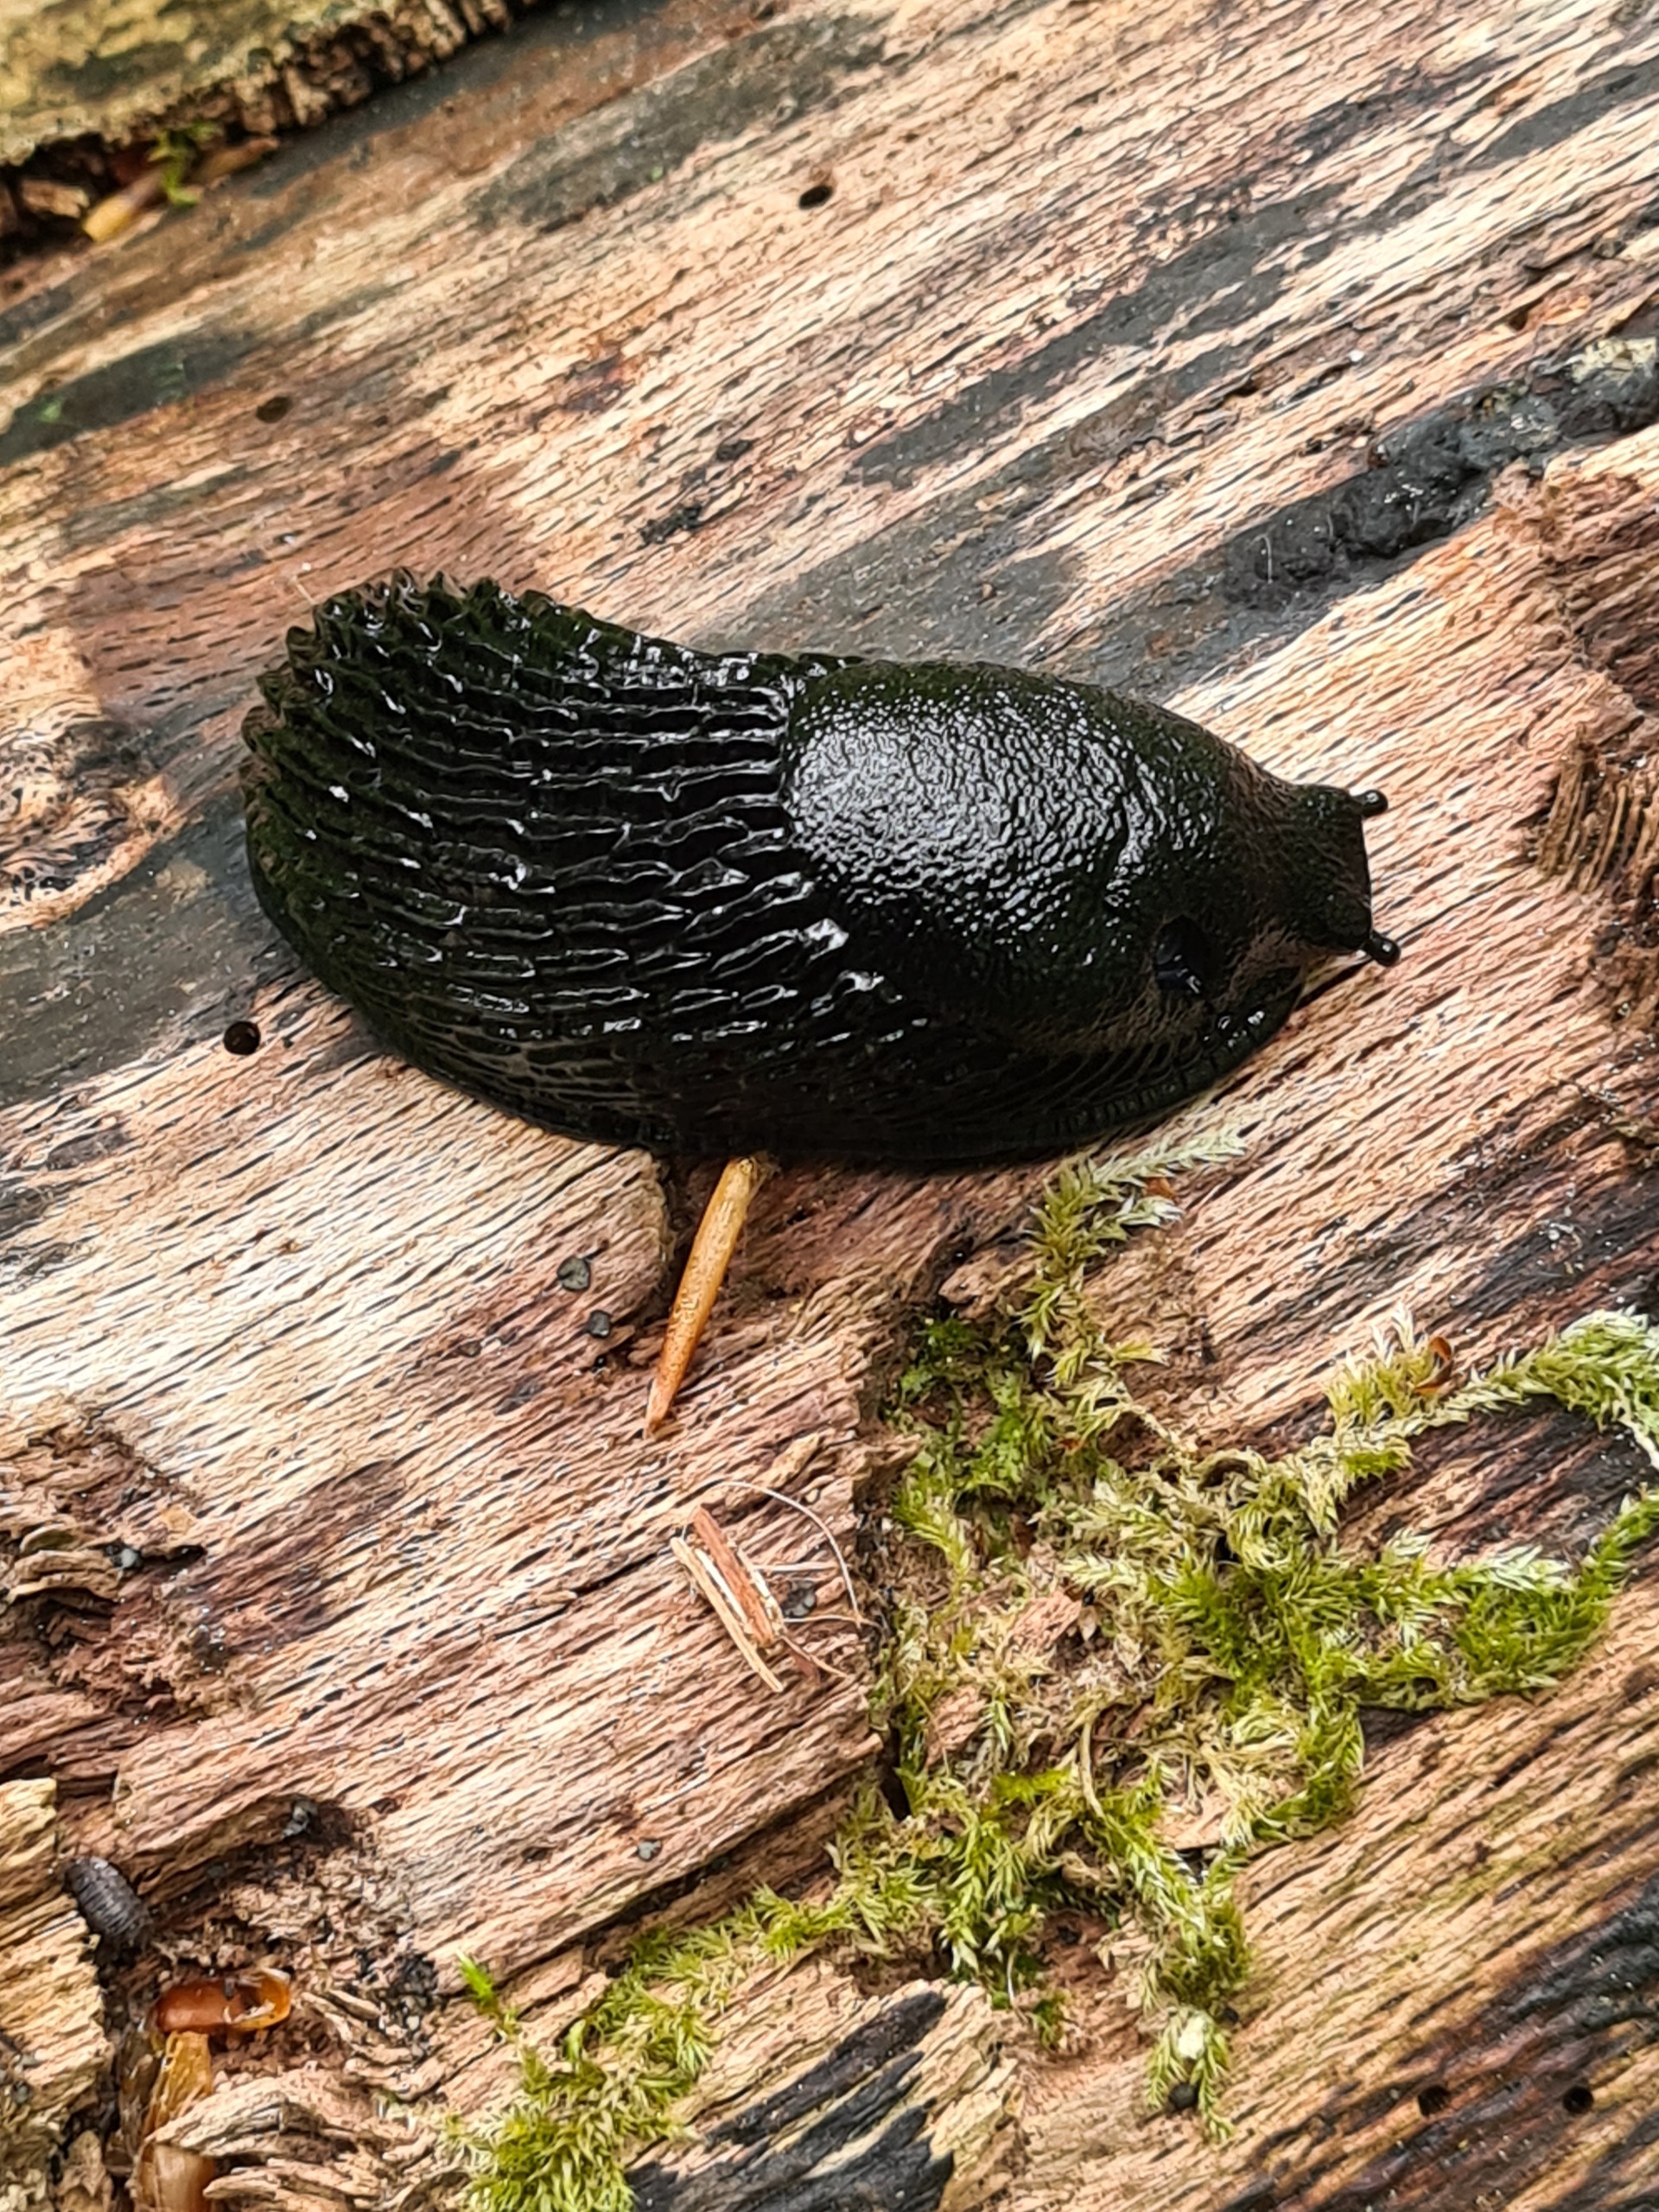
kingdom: Animalia
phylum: Mollusca
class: Gastropoda
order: Stylommatophora
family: Arionidae
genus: Arion
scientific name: Arion ater
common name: Sort skovsnegl
